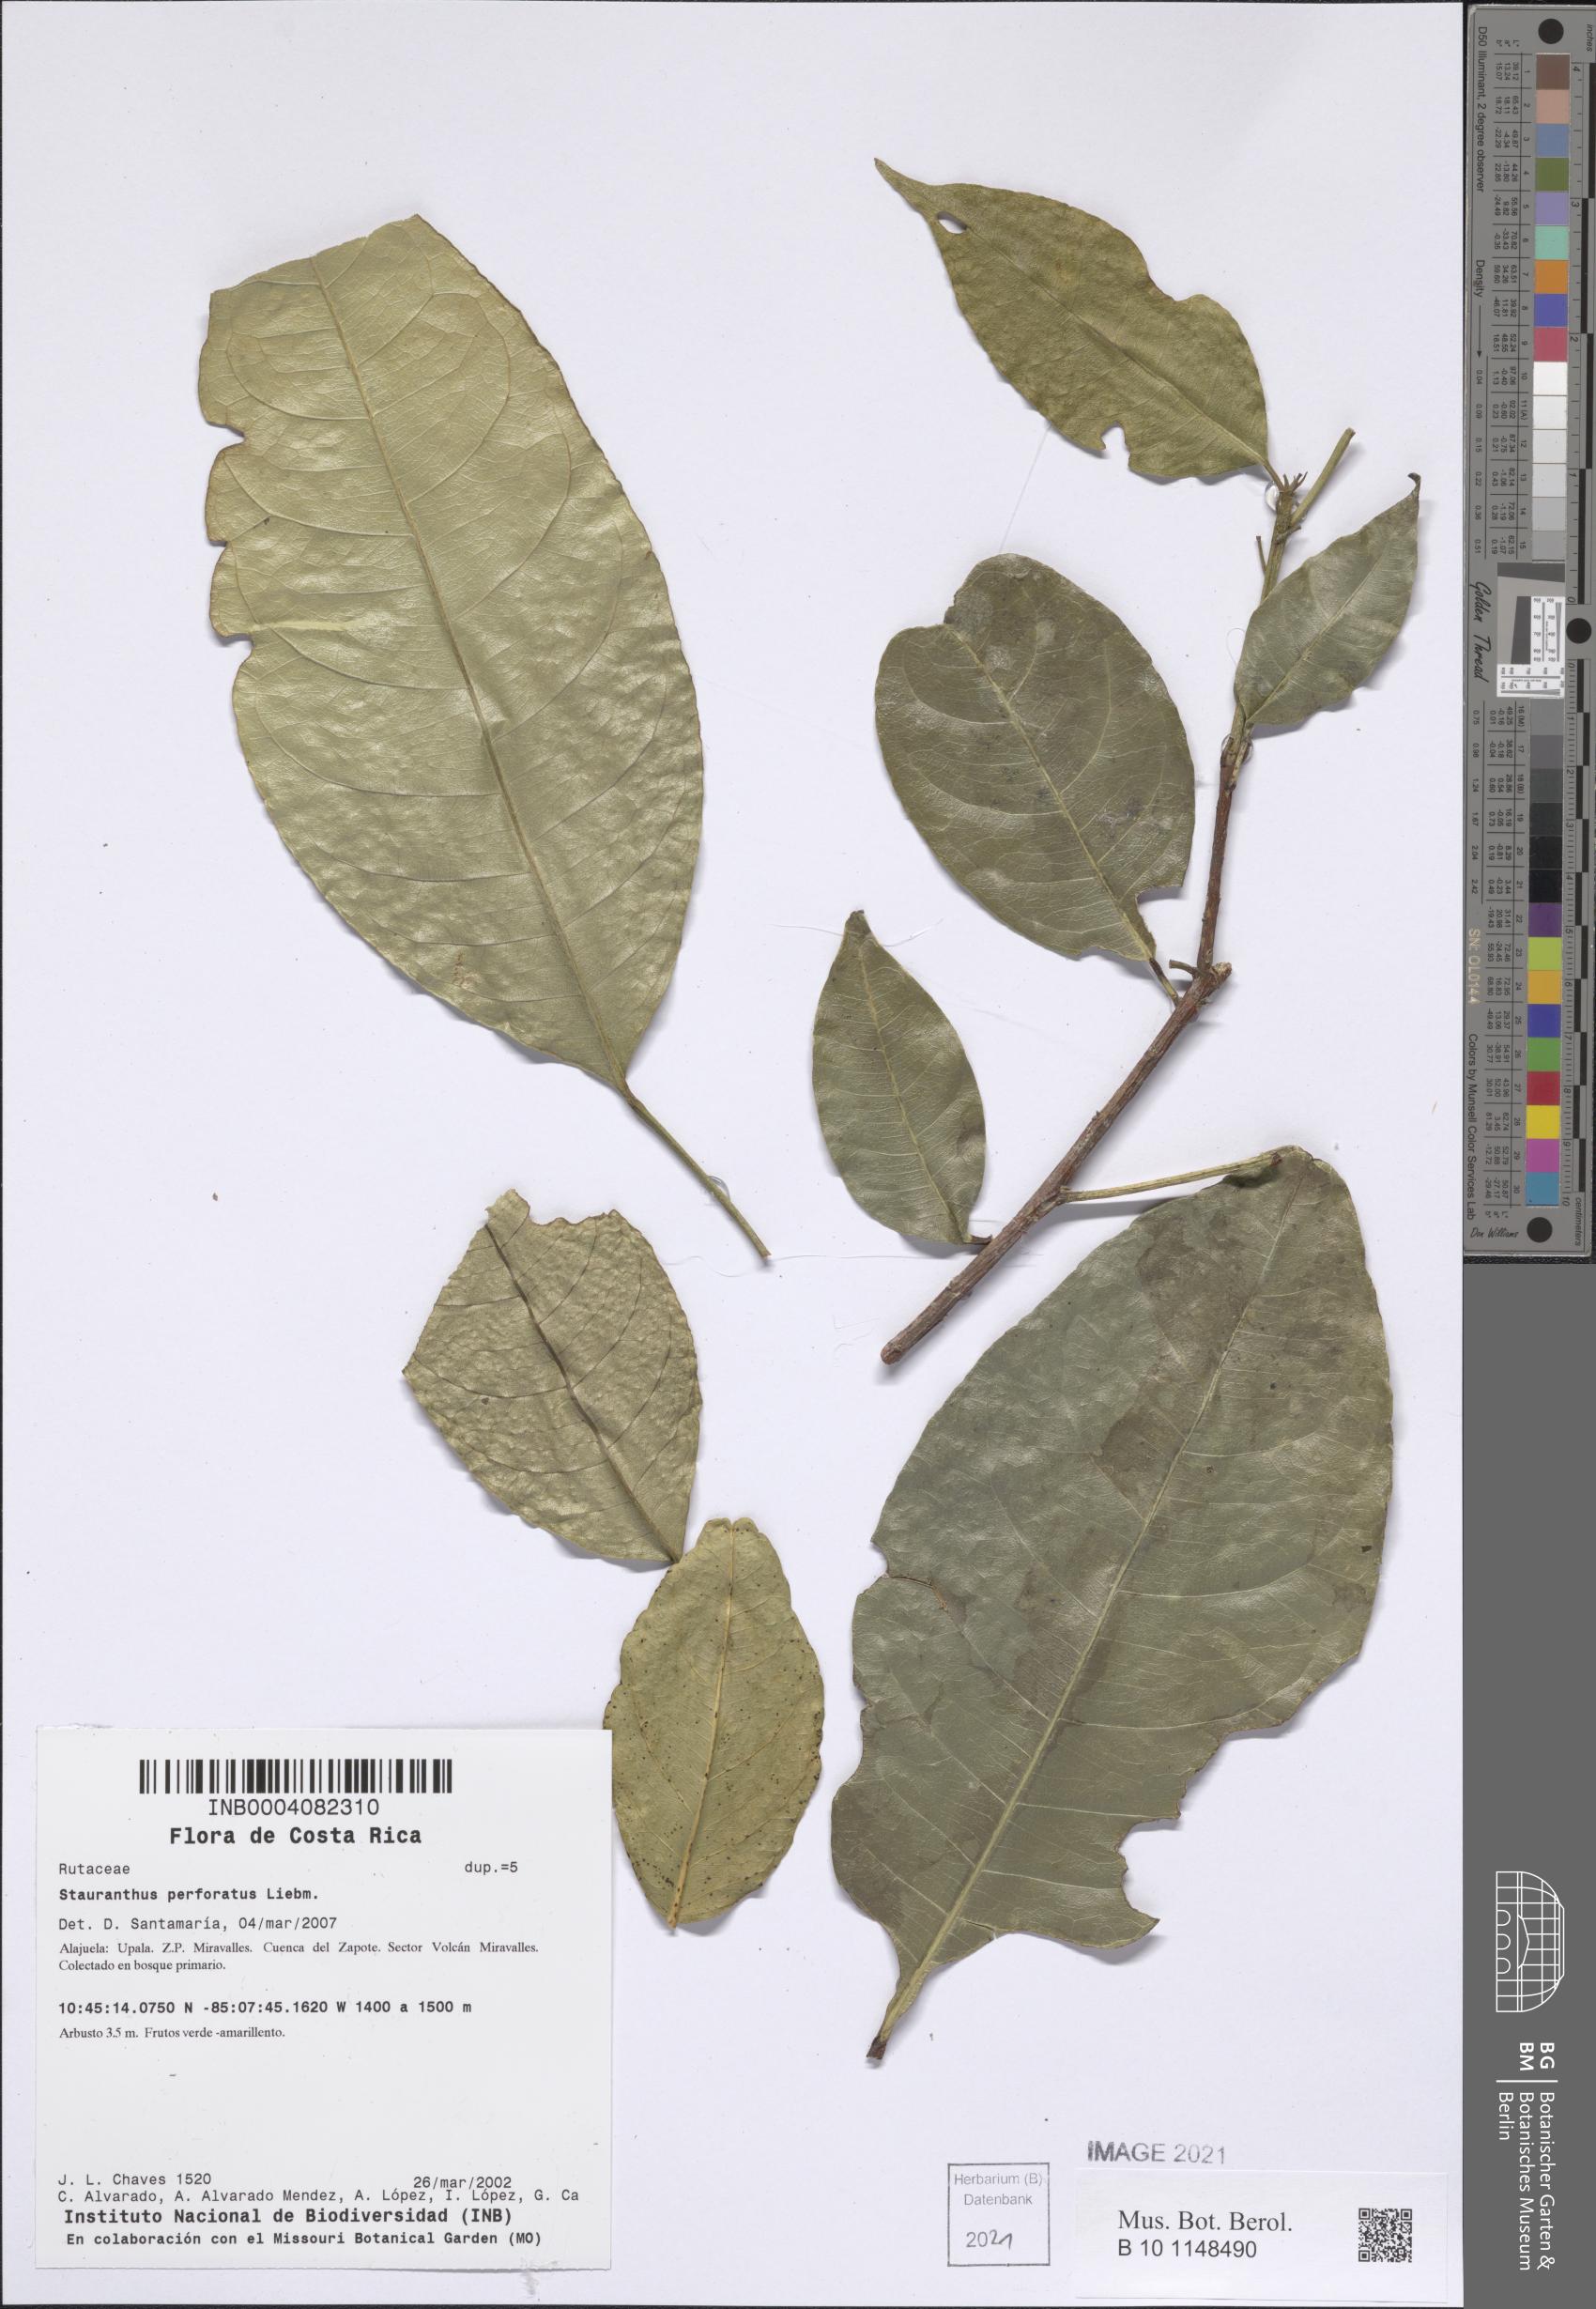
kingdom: Plantae
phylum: Tracheophyta
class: Magnoliopsida
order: Sapindales
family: Rutaceae
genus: Stauranthus
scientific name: Stauranthus perforatus
